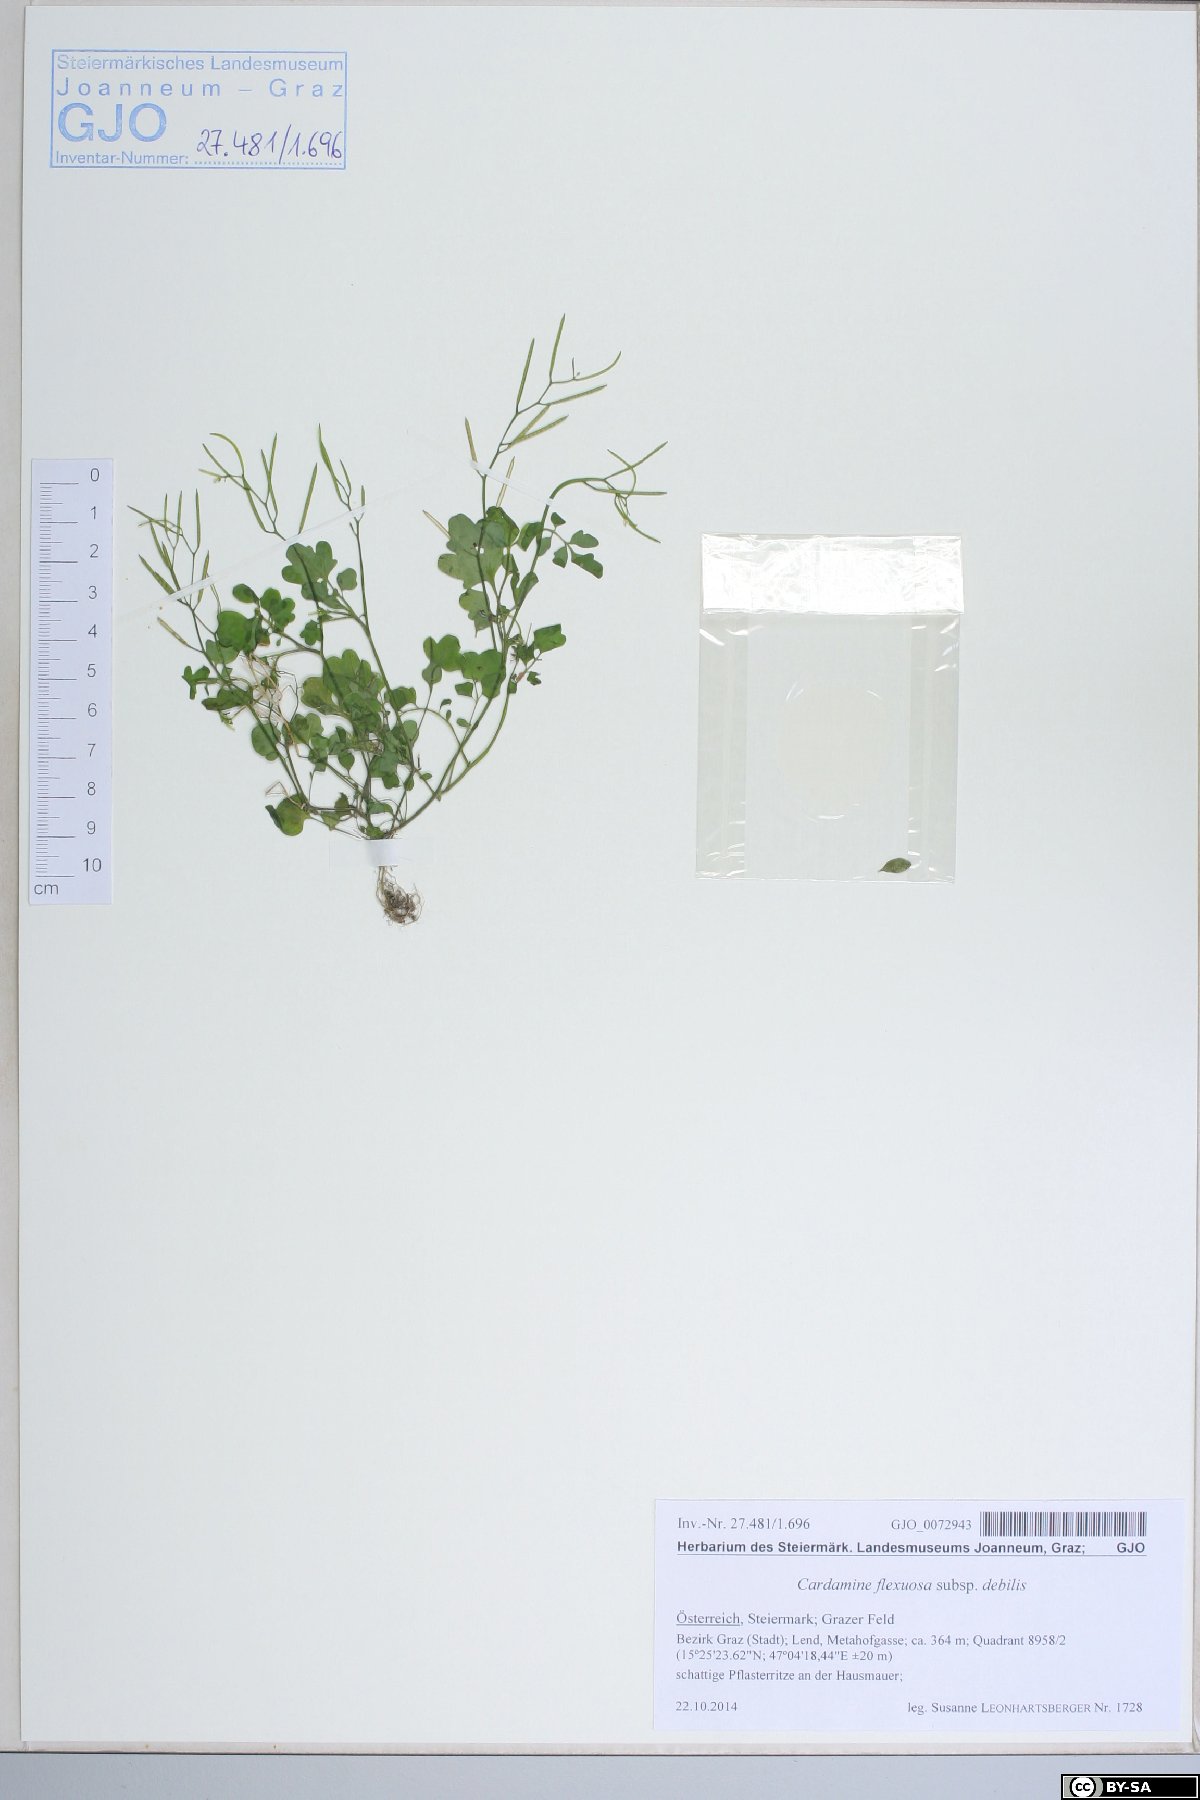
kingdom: Plantae
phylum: Tracheophyta
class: Magnoliopsida
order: Brassicales
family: Brassicaceae
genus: Cardamine
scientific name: Cardamine occulta
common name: Asian wavy bittercress
